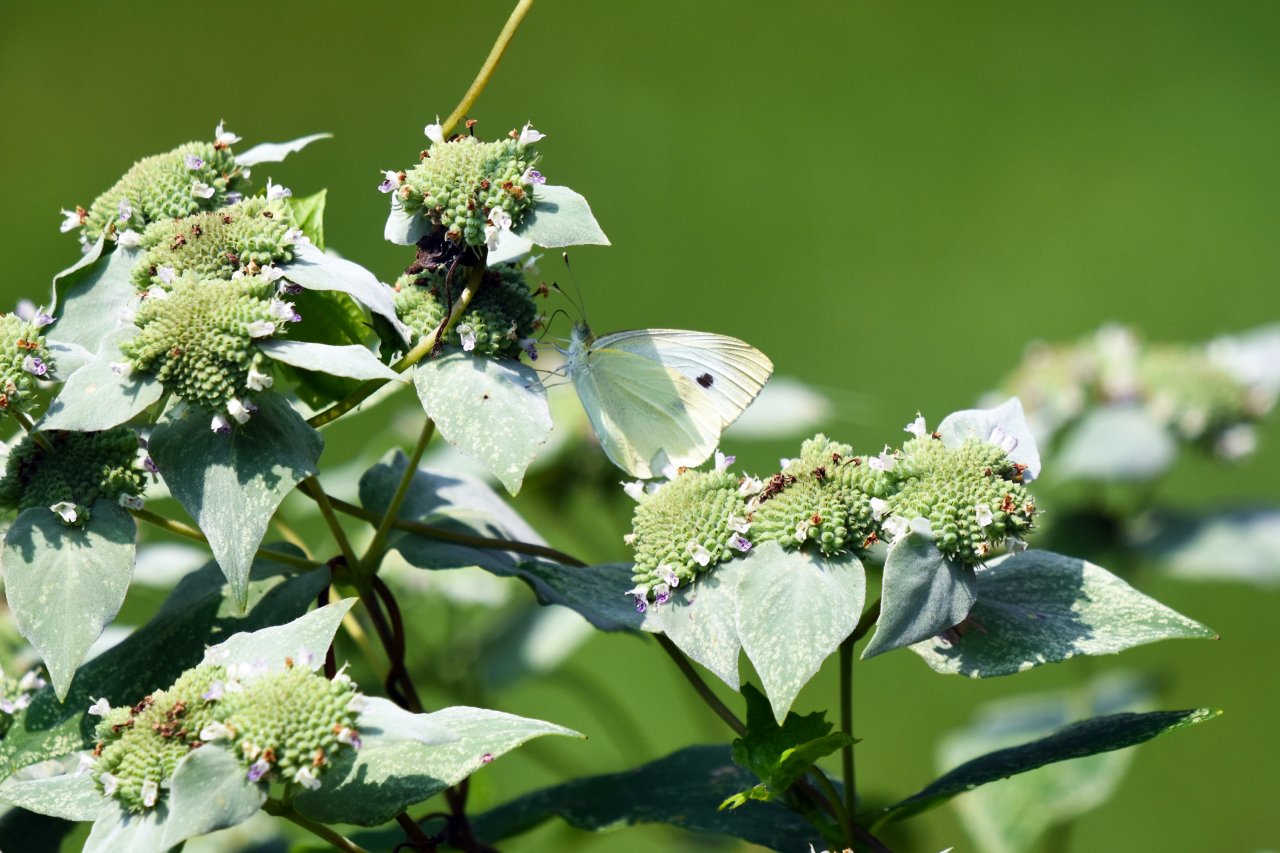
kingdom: Animalia
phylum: Arthropoda
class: Insecta
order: Lepidoptera
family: Pieridae
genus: Pieris
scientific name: Pieris rapae
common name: Cabbage White
